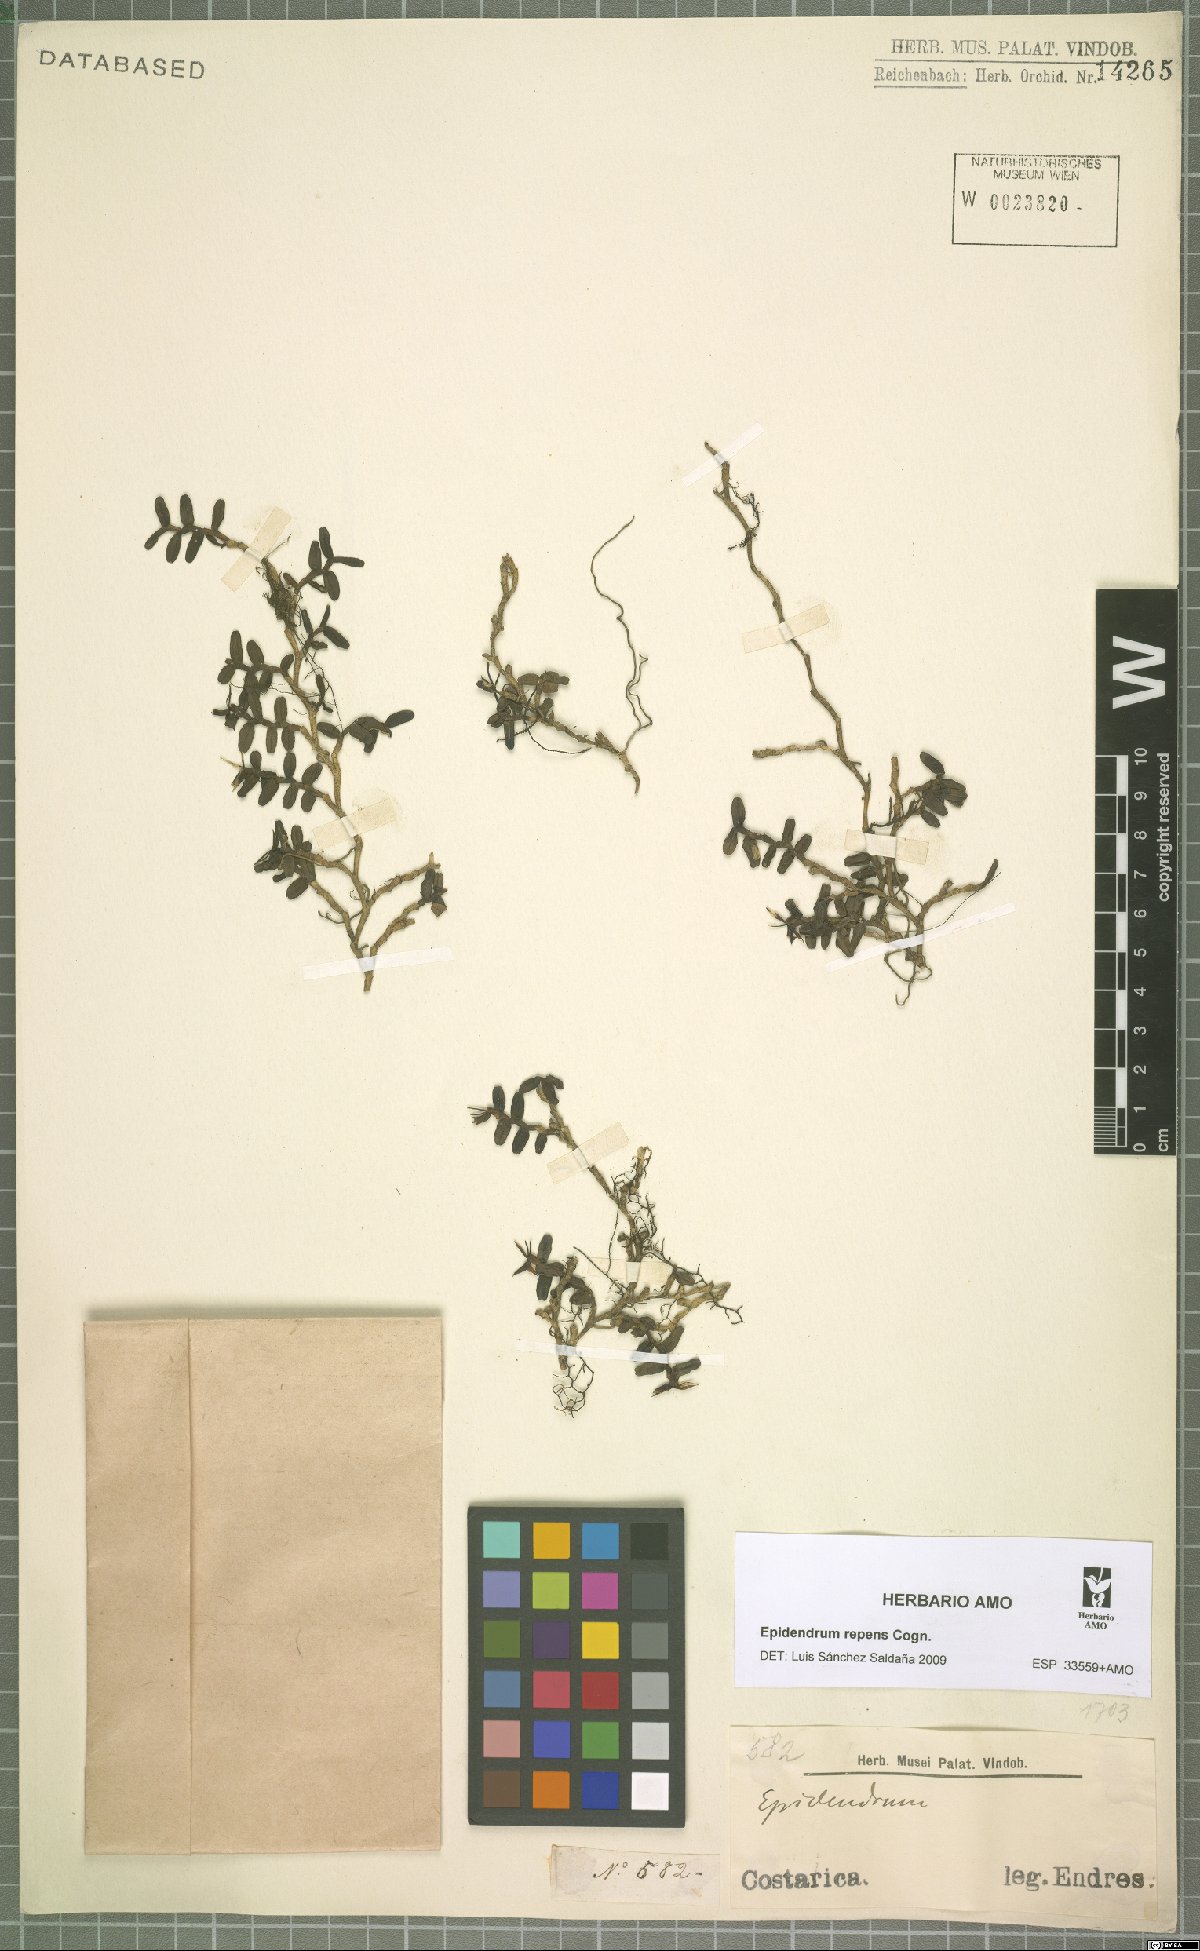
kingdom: Plantae
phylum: Tracheophyta
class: Liliopsida
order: Asparagales
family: Orchidaceae
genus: Epidendrum
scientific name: Epidendrum repens
